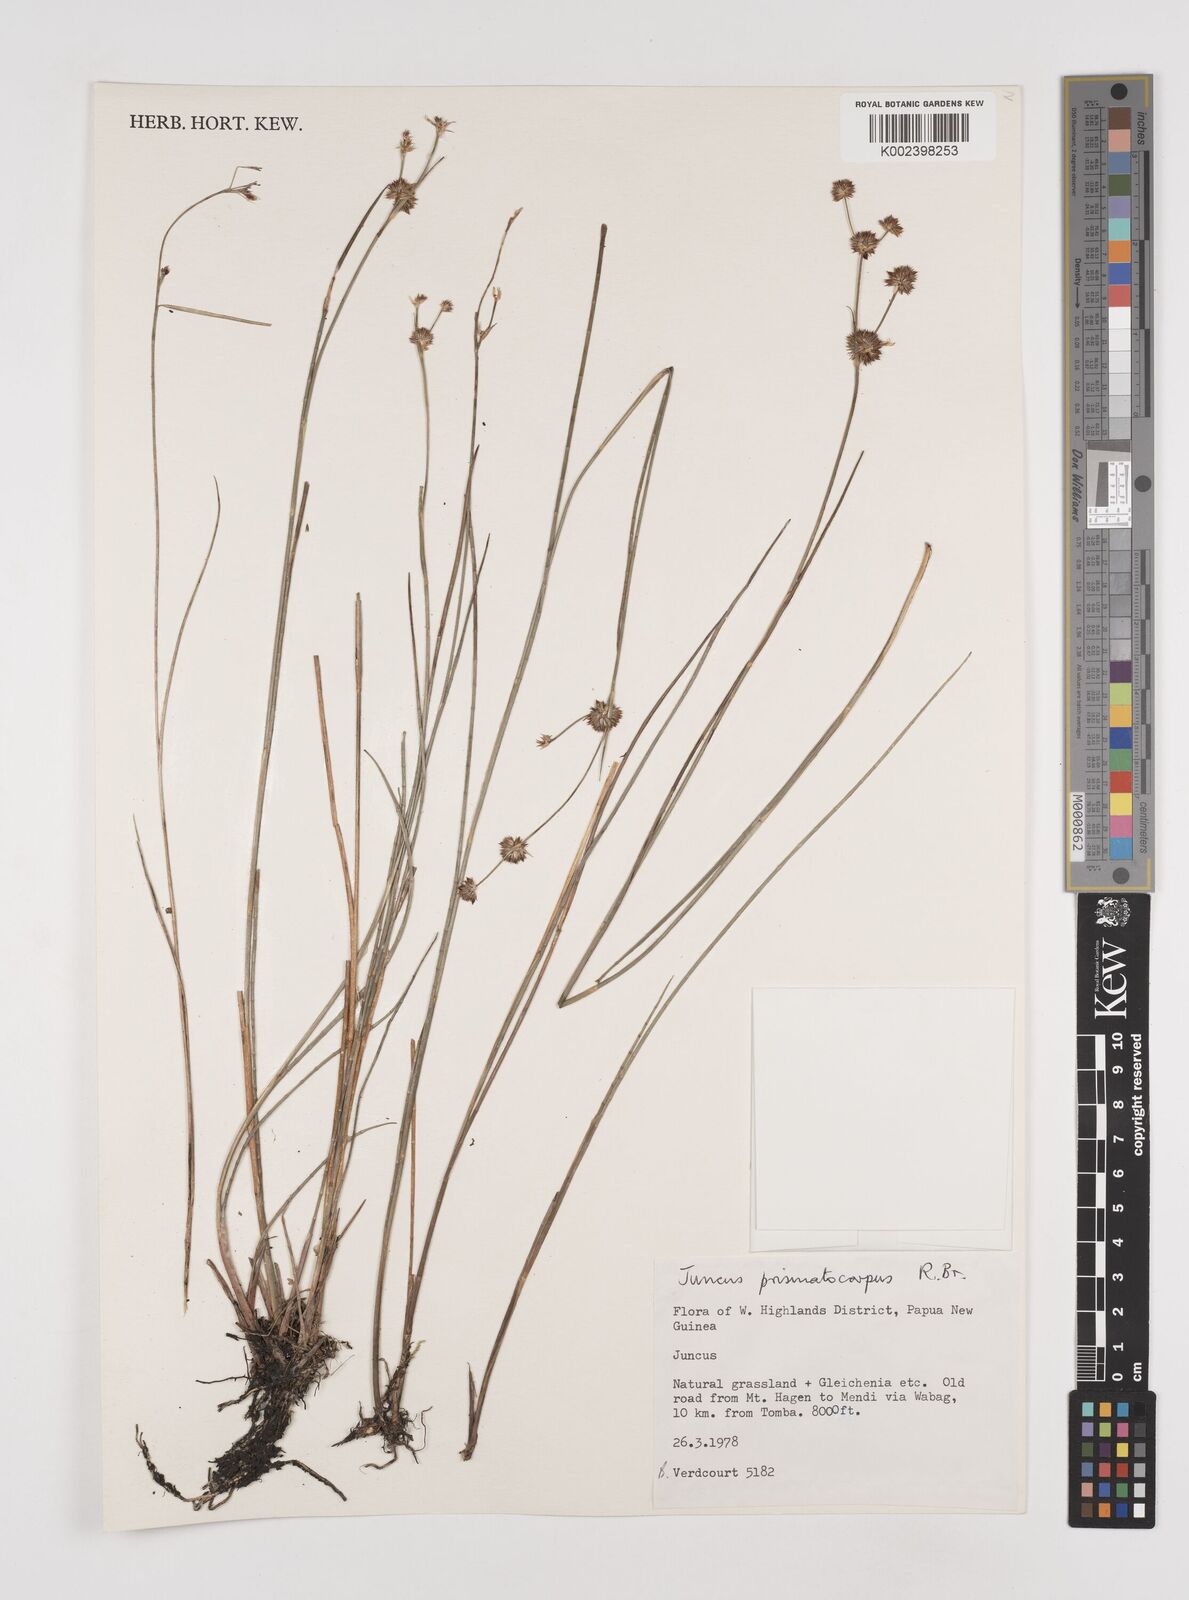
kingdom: Plantae
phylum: Tracheophyta
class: Liliopsida
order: Poales
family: Juncaceae
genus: Juncus
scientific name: Juncus wallichianus
